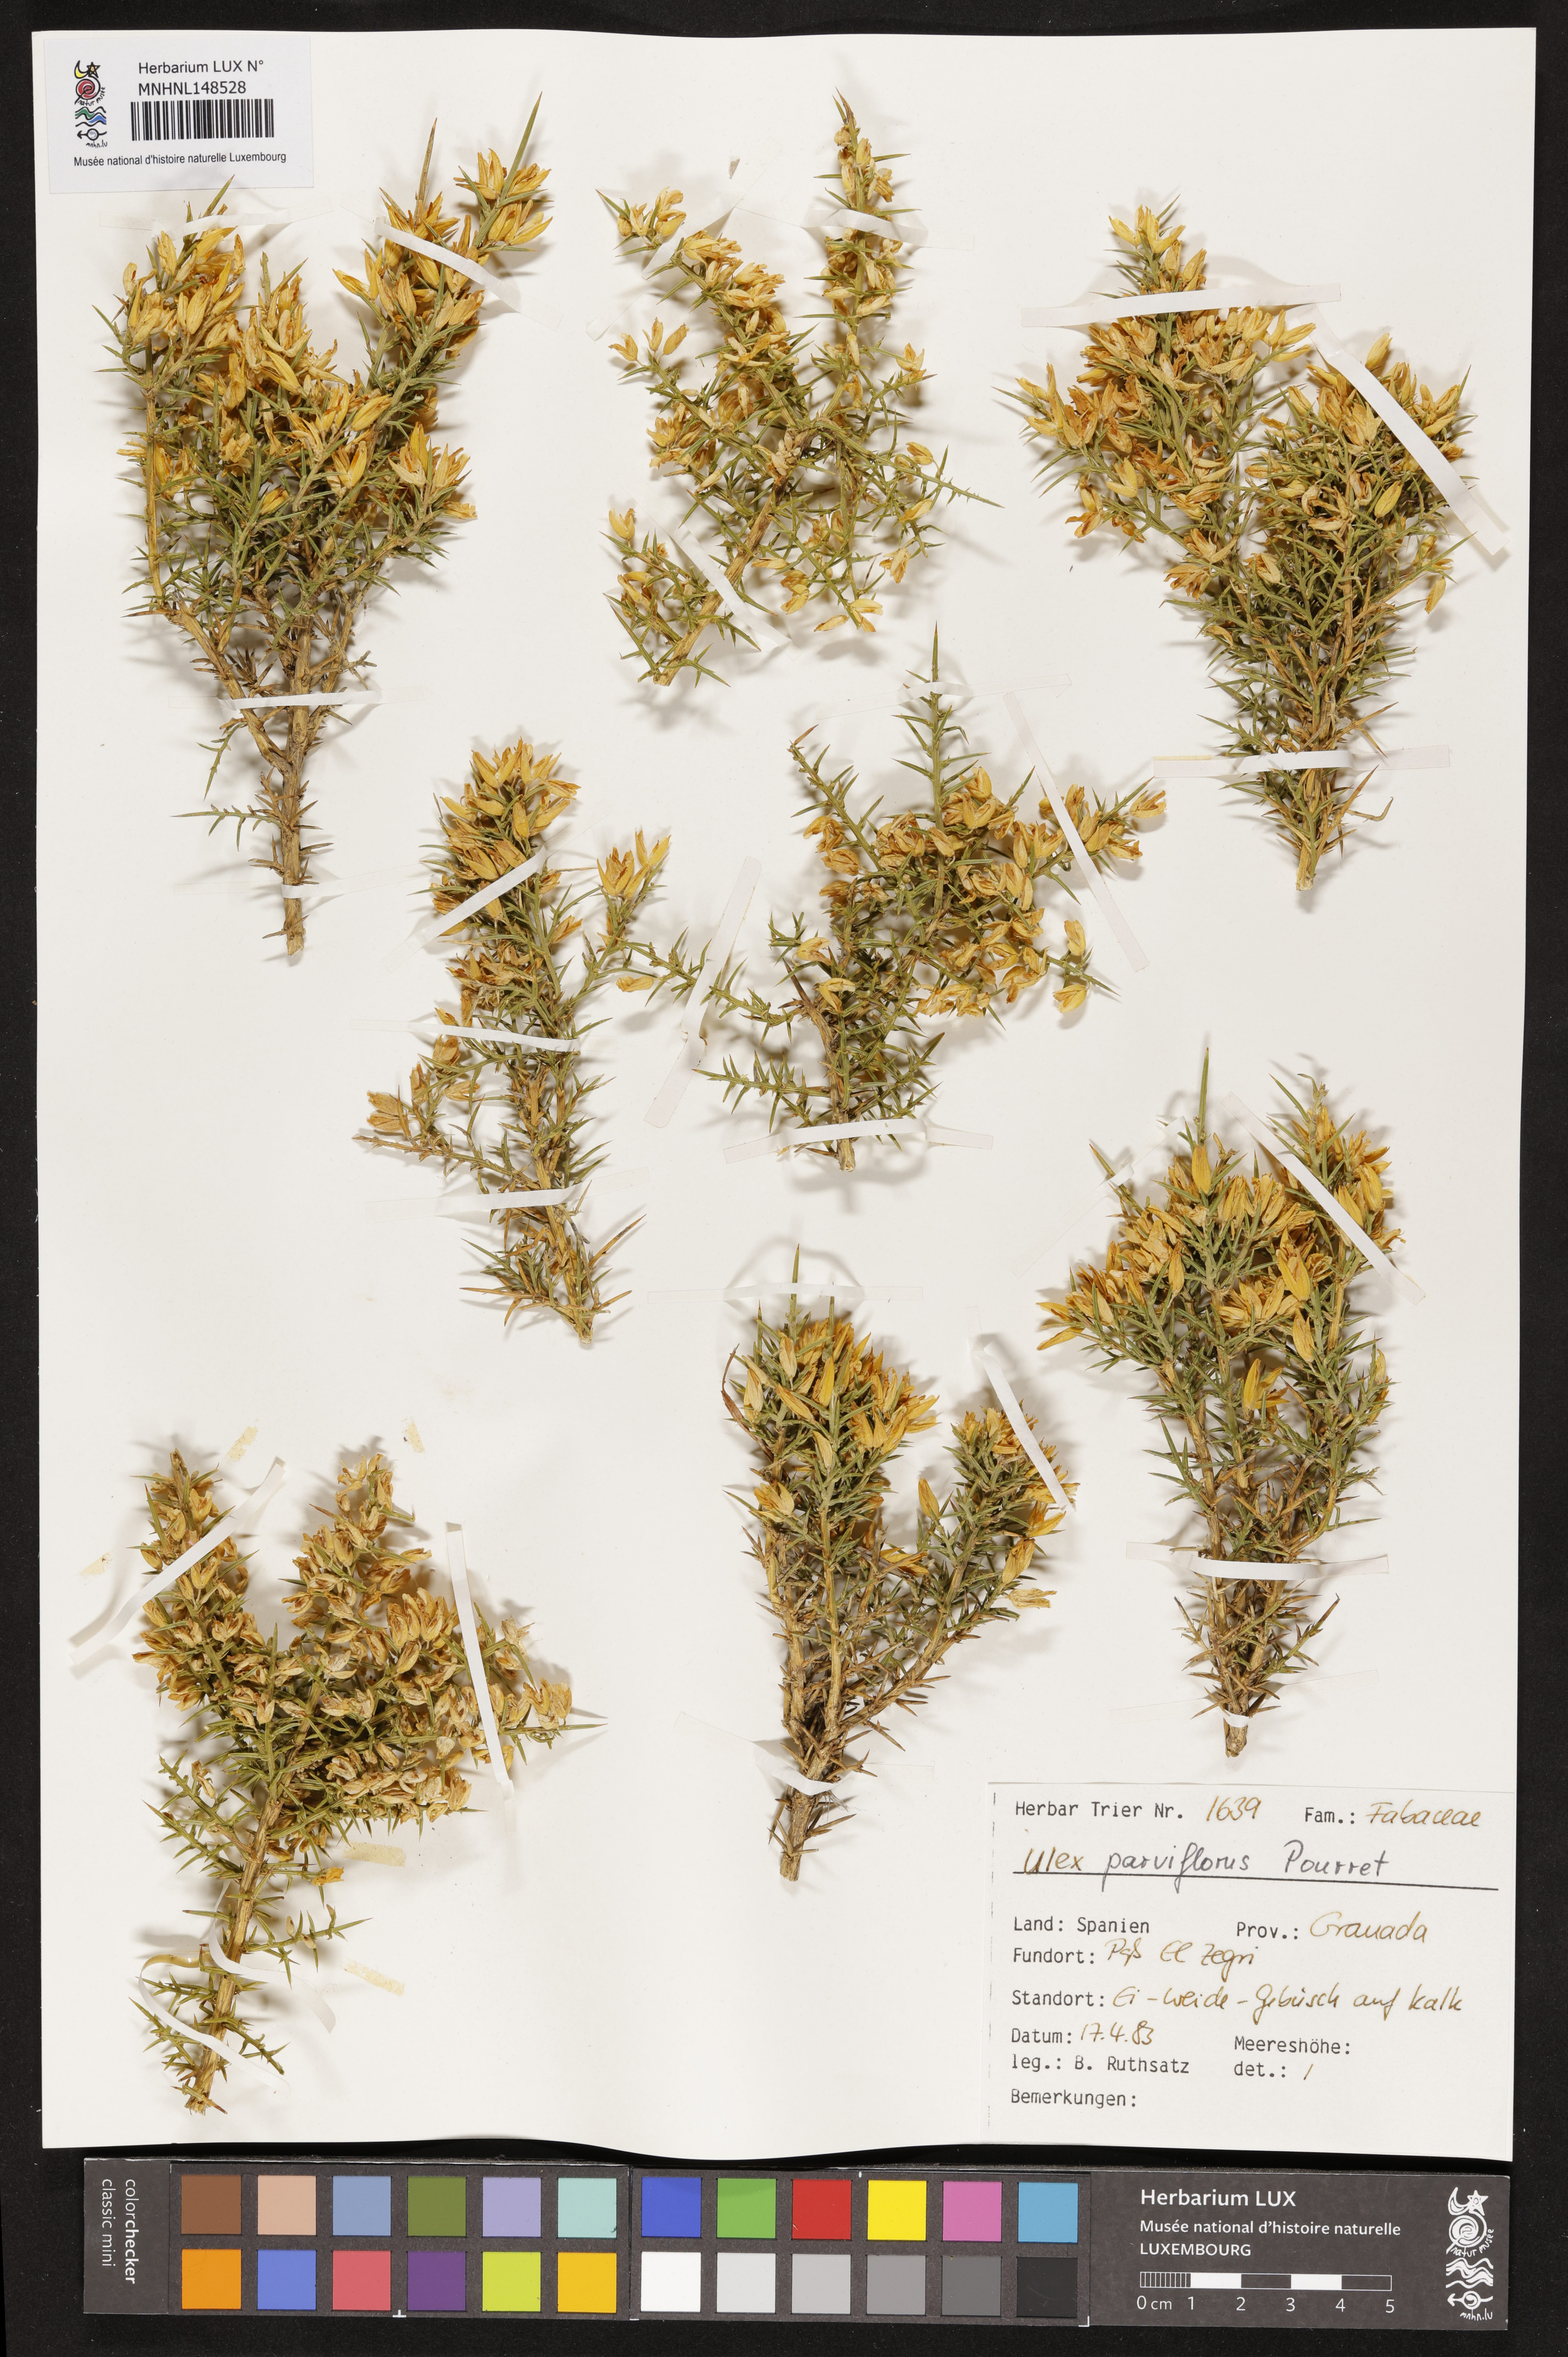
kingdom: Plantae
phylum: Tracheophyta
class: Magnoliopsida
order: Fabales
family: Fabaceae
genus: Ulex
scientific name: Ulex parviflorus
